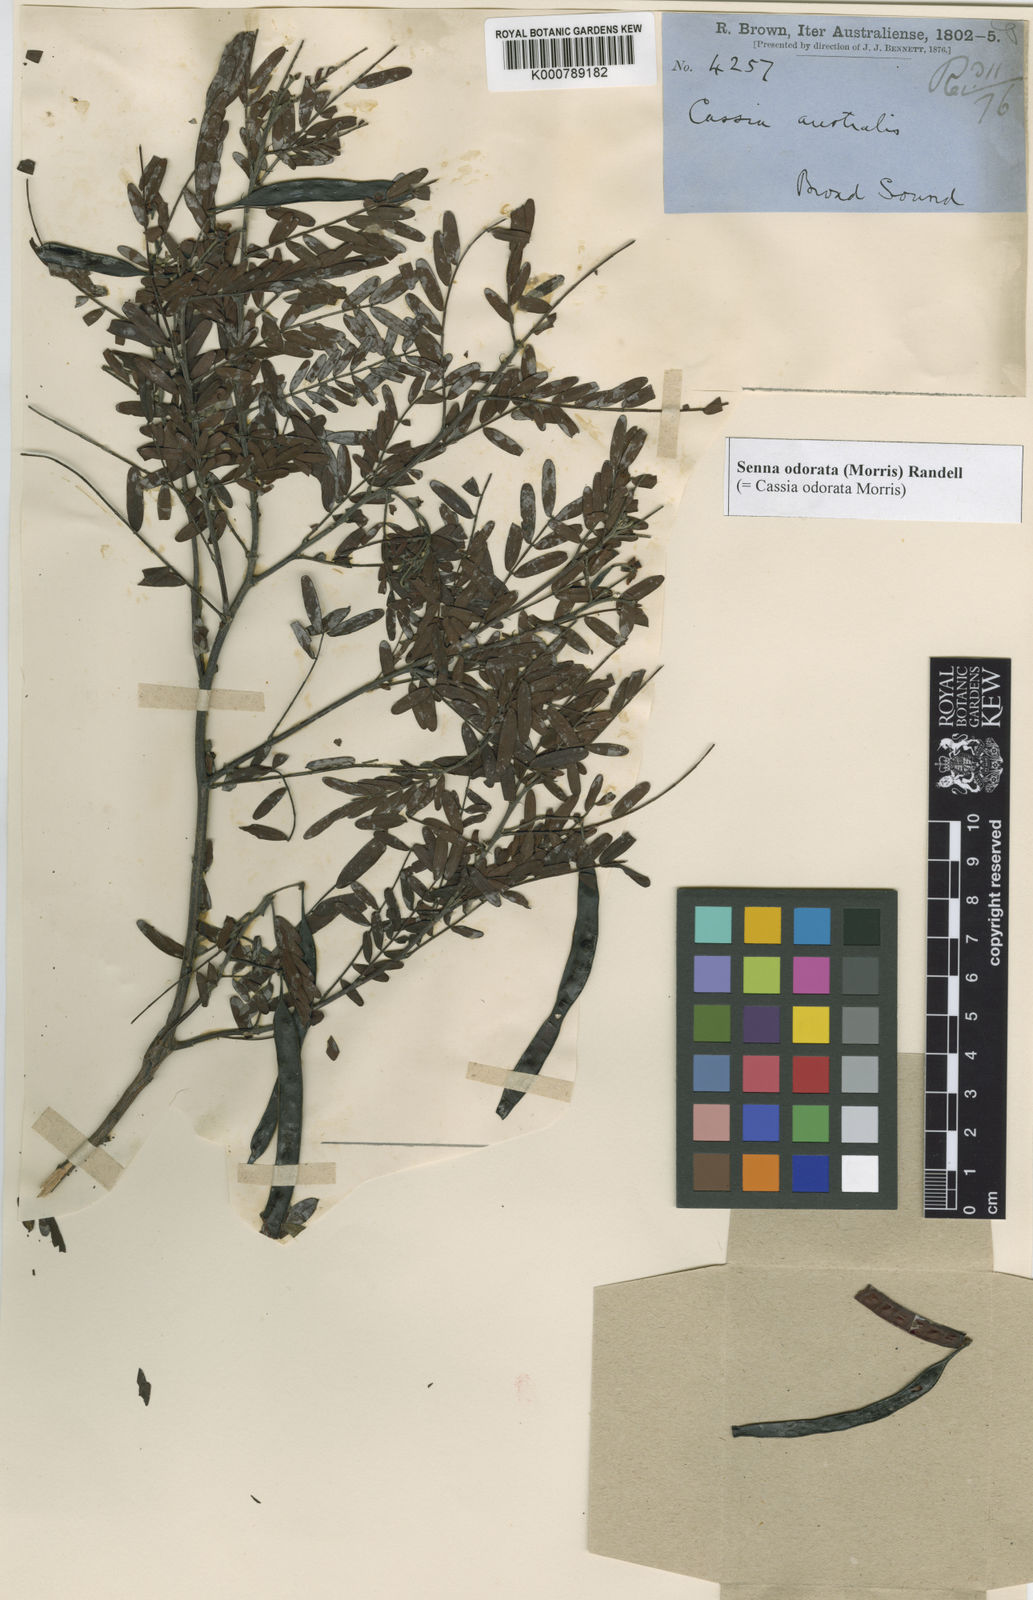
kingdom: Plantae
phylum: Tracheophyta
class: Magnoliopsida
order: Fabales
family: Fabaceae
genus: Senna
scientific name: Senna barronfieldii
